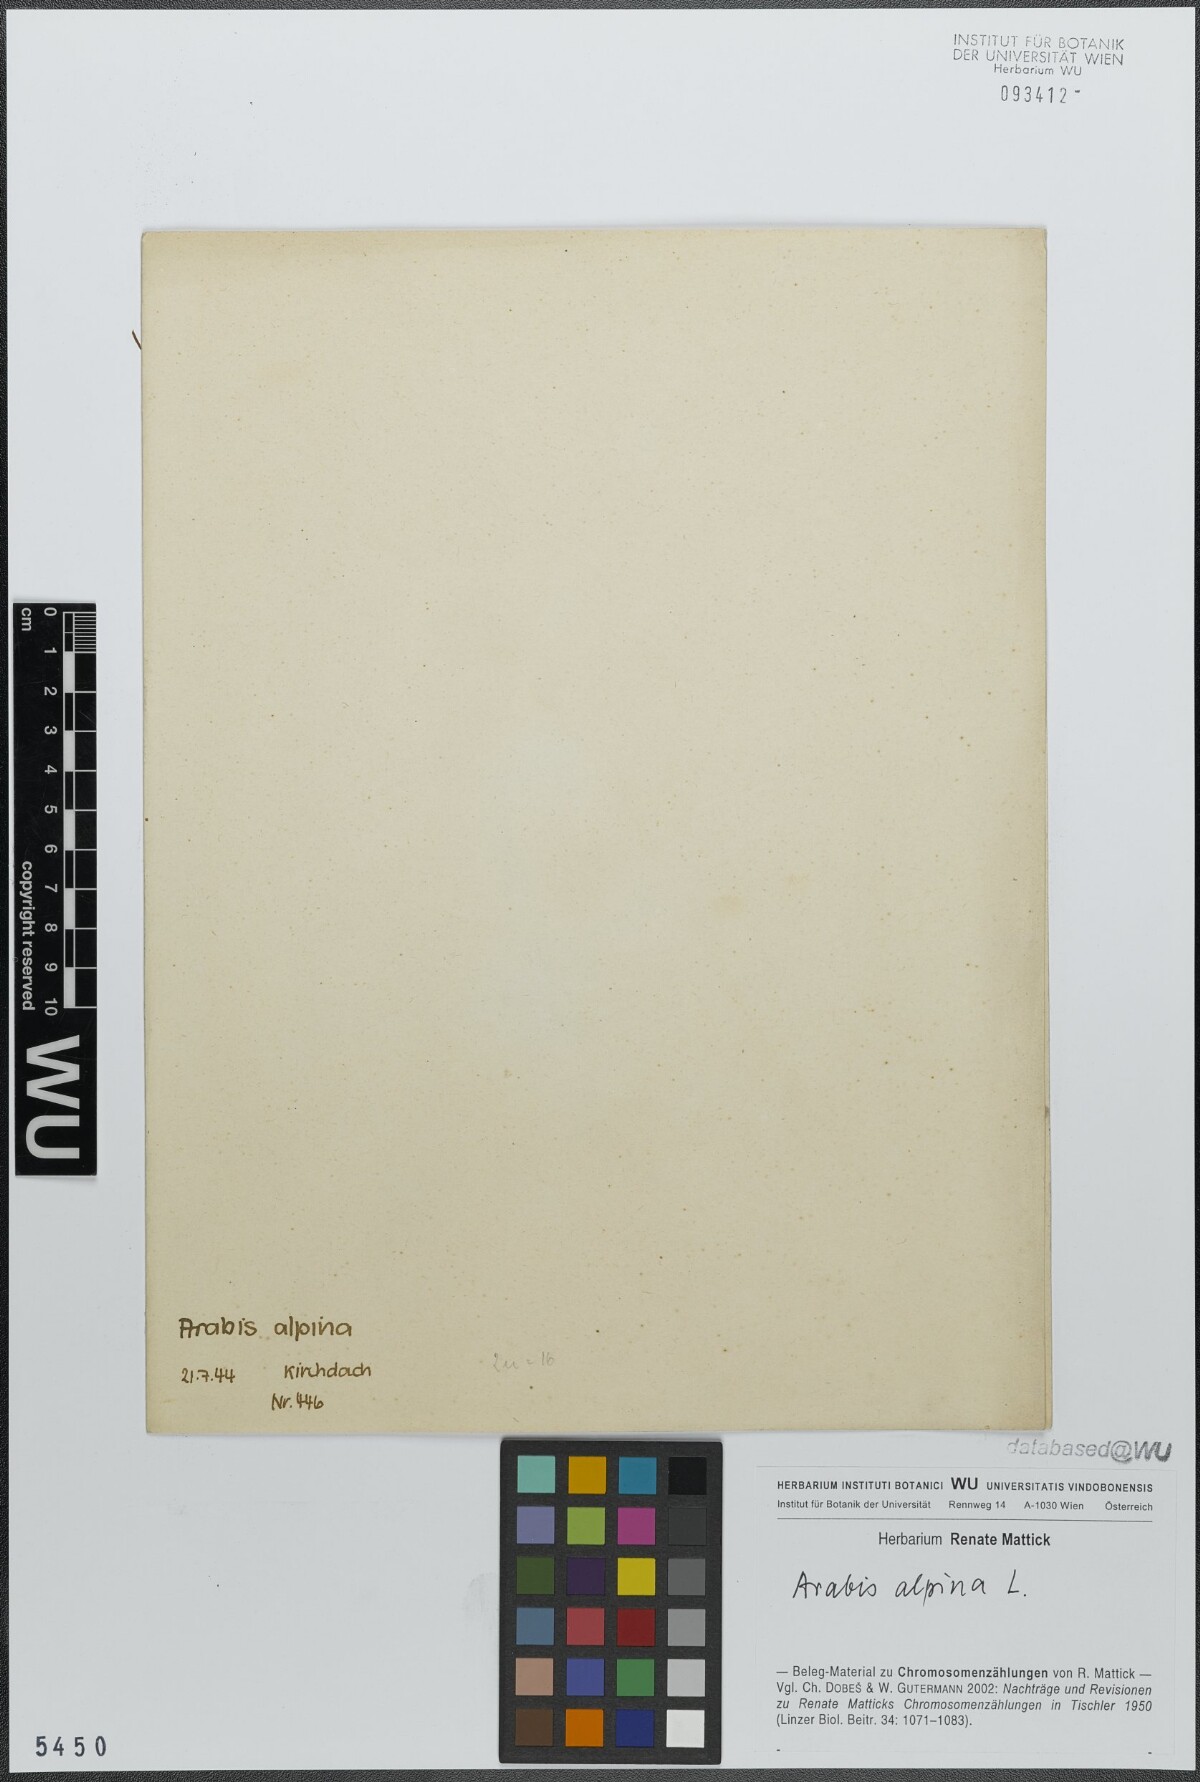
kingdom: Plantae
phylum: Tracheophyta
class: Magnoliopsida
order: Brassicales
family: Brassicaceae
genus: Arabis
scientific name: Arabis alpina
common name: Alpine rock-cress
